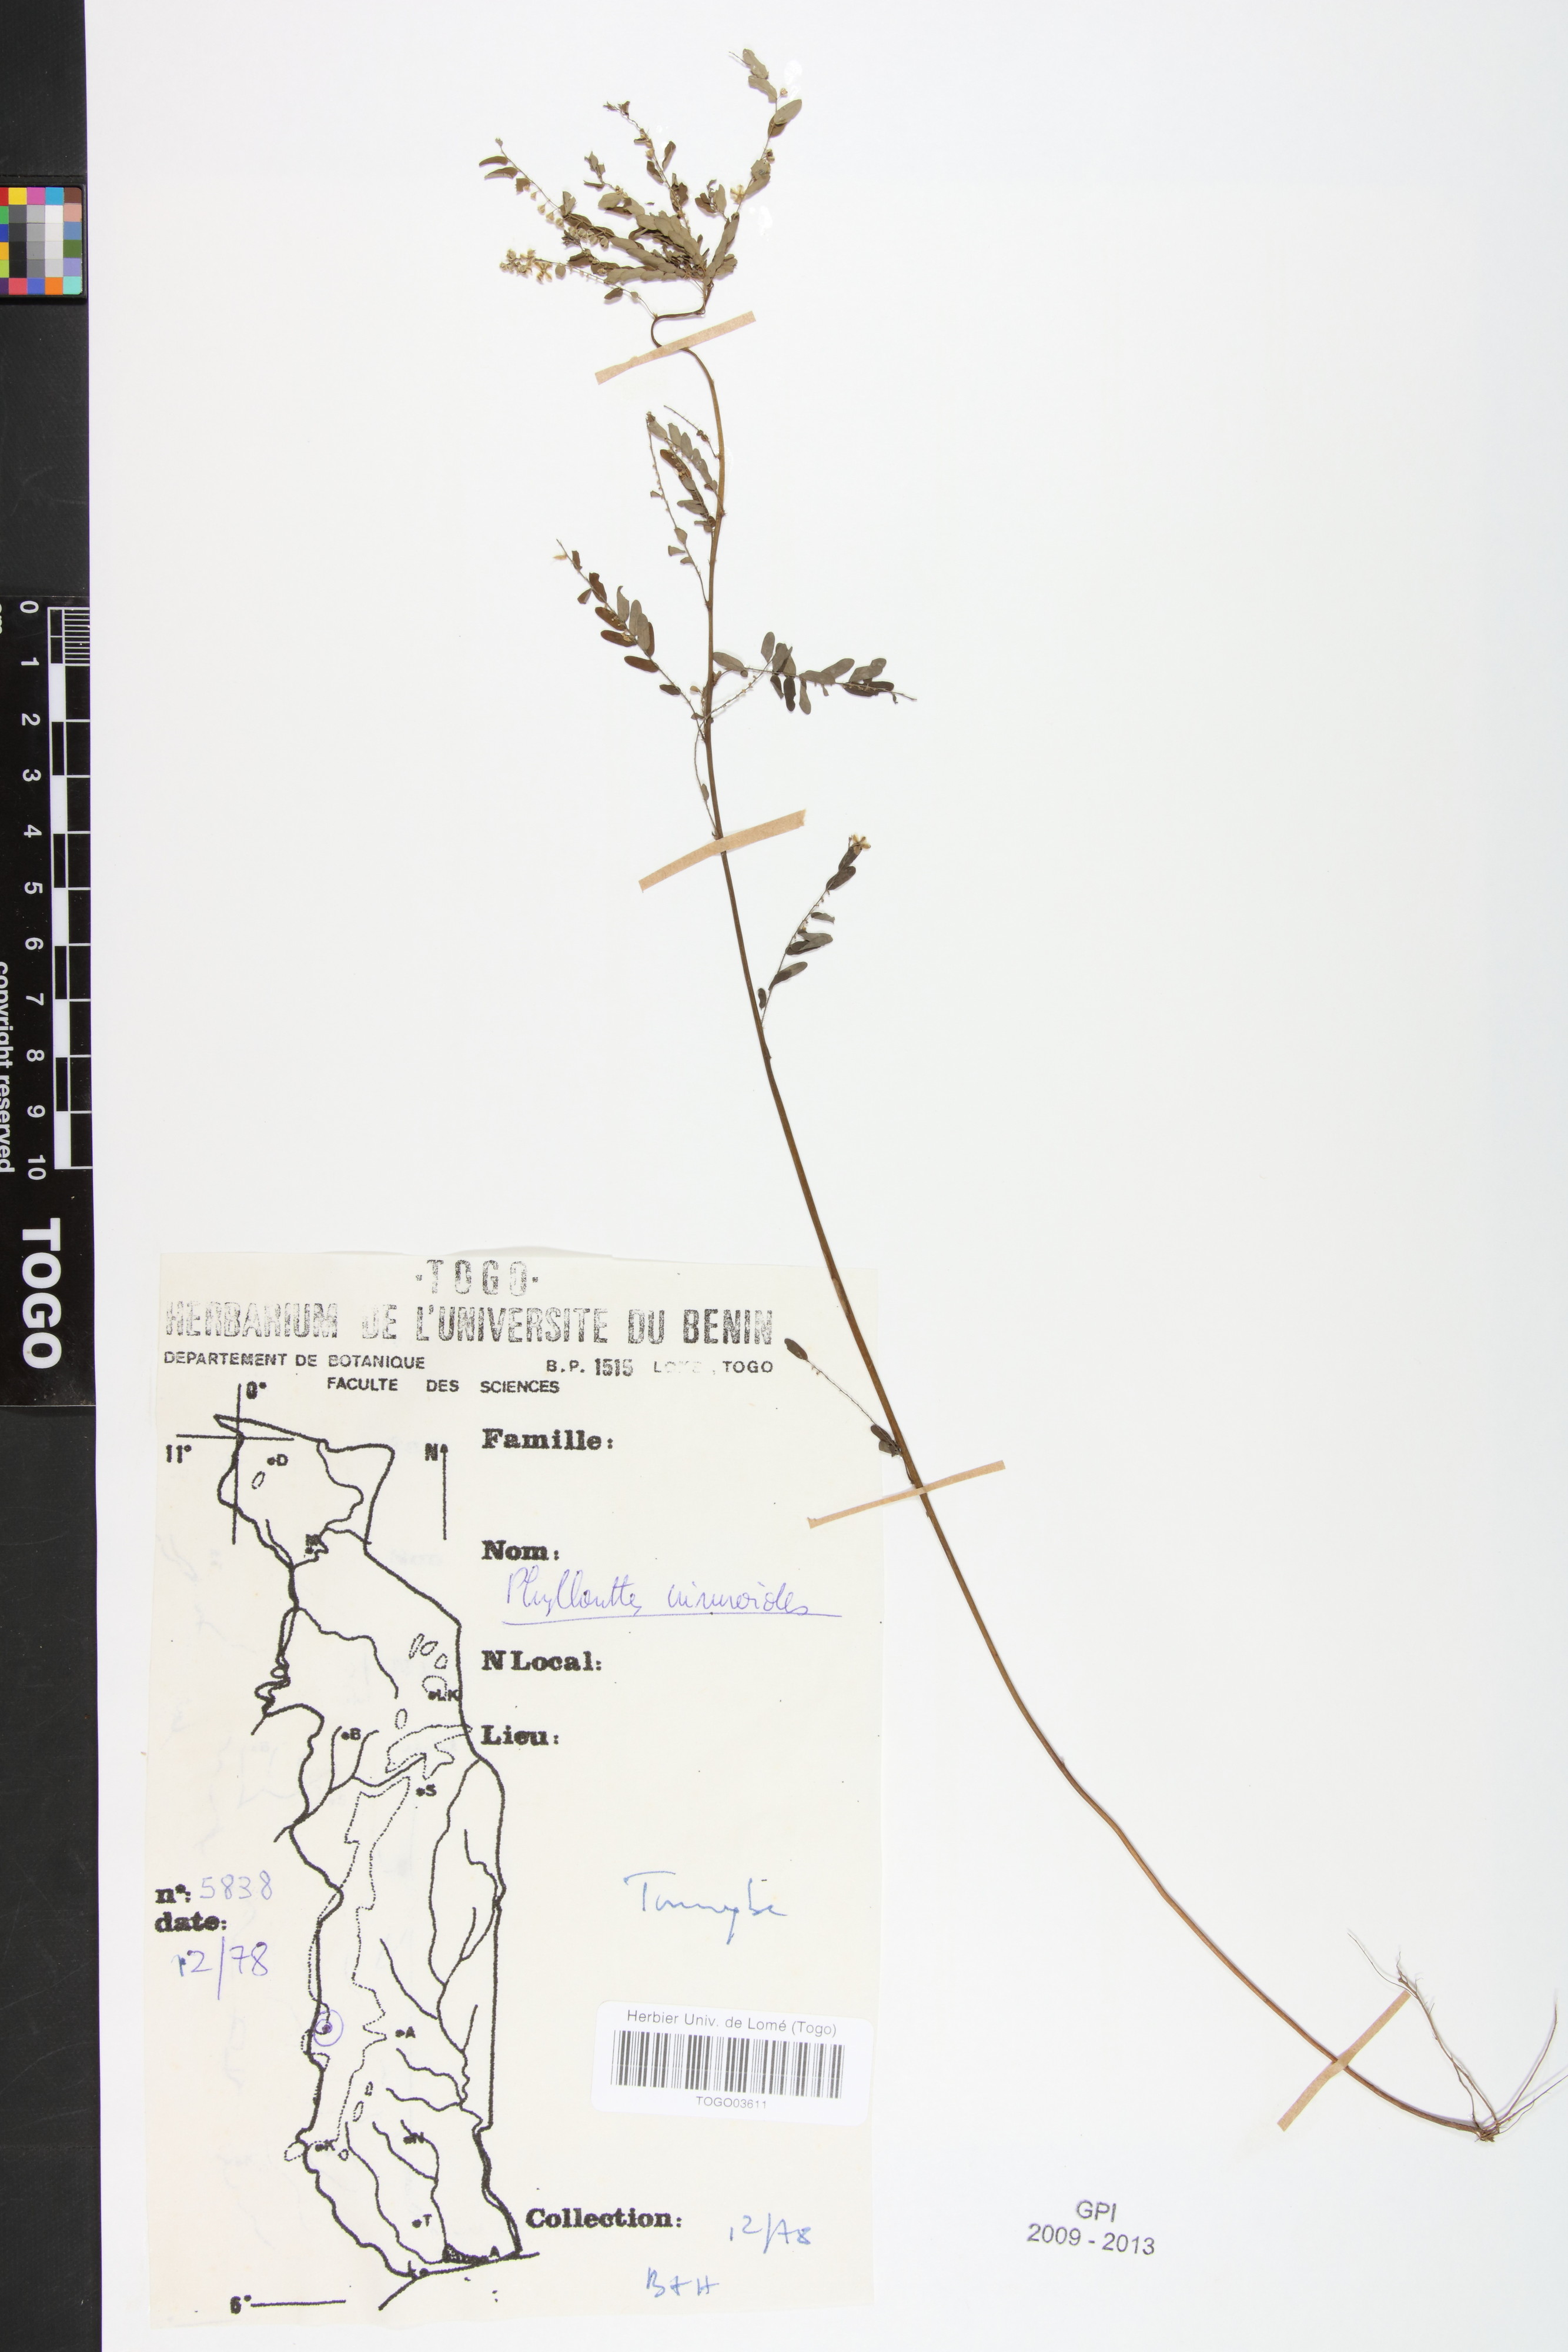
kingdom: Plantae
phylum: Tracheophyta
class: Magnoliopsida
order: Malpighiales
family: Phyllanthaceae
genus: Phyllanthus
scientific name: Phyllanthus niruroides
